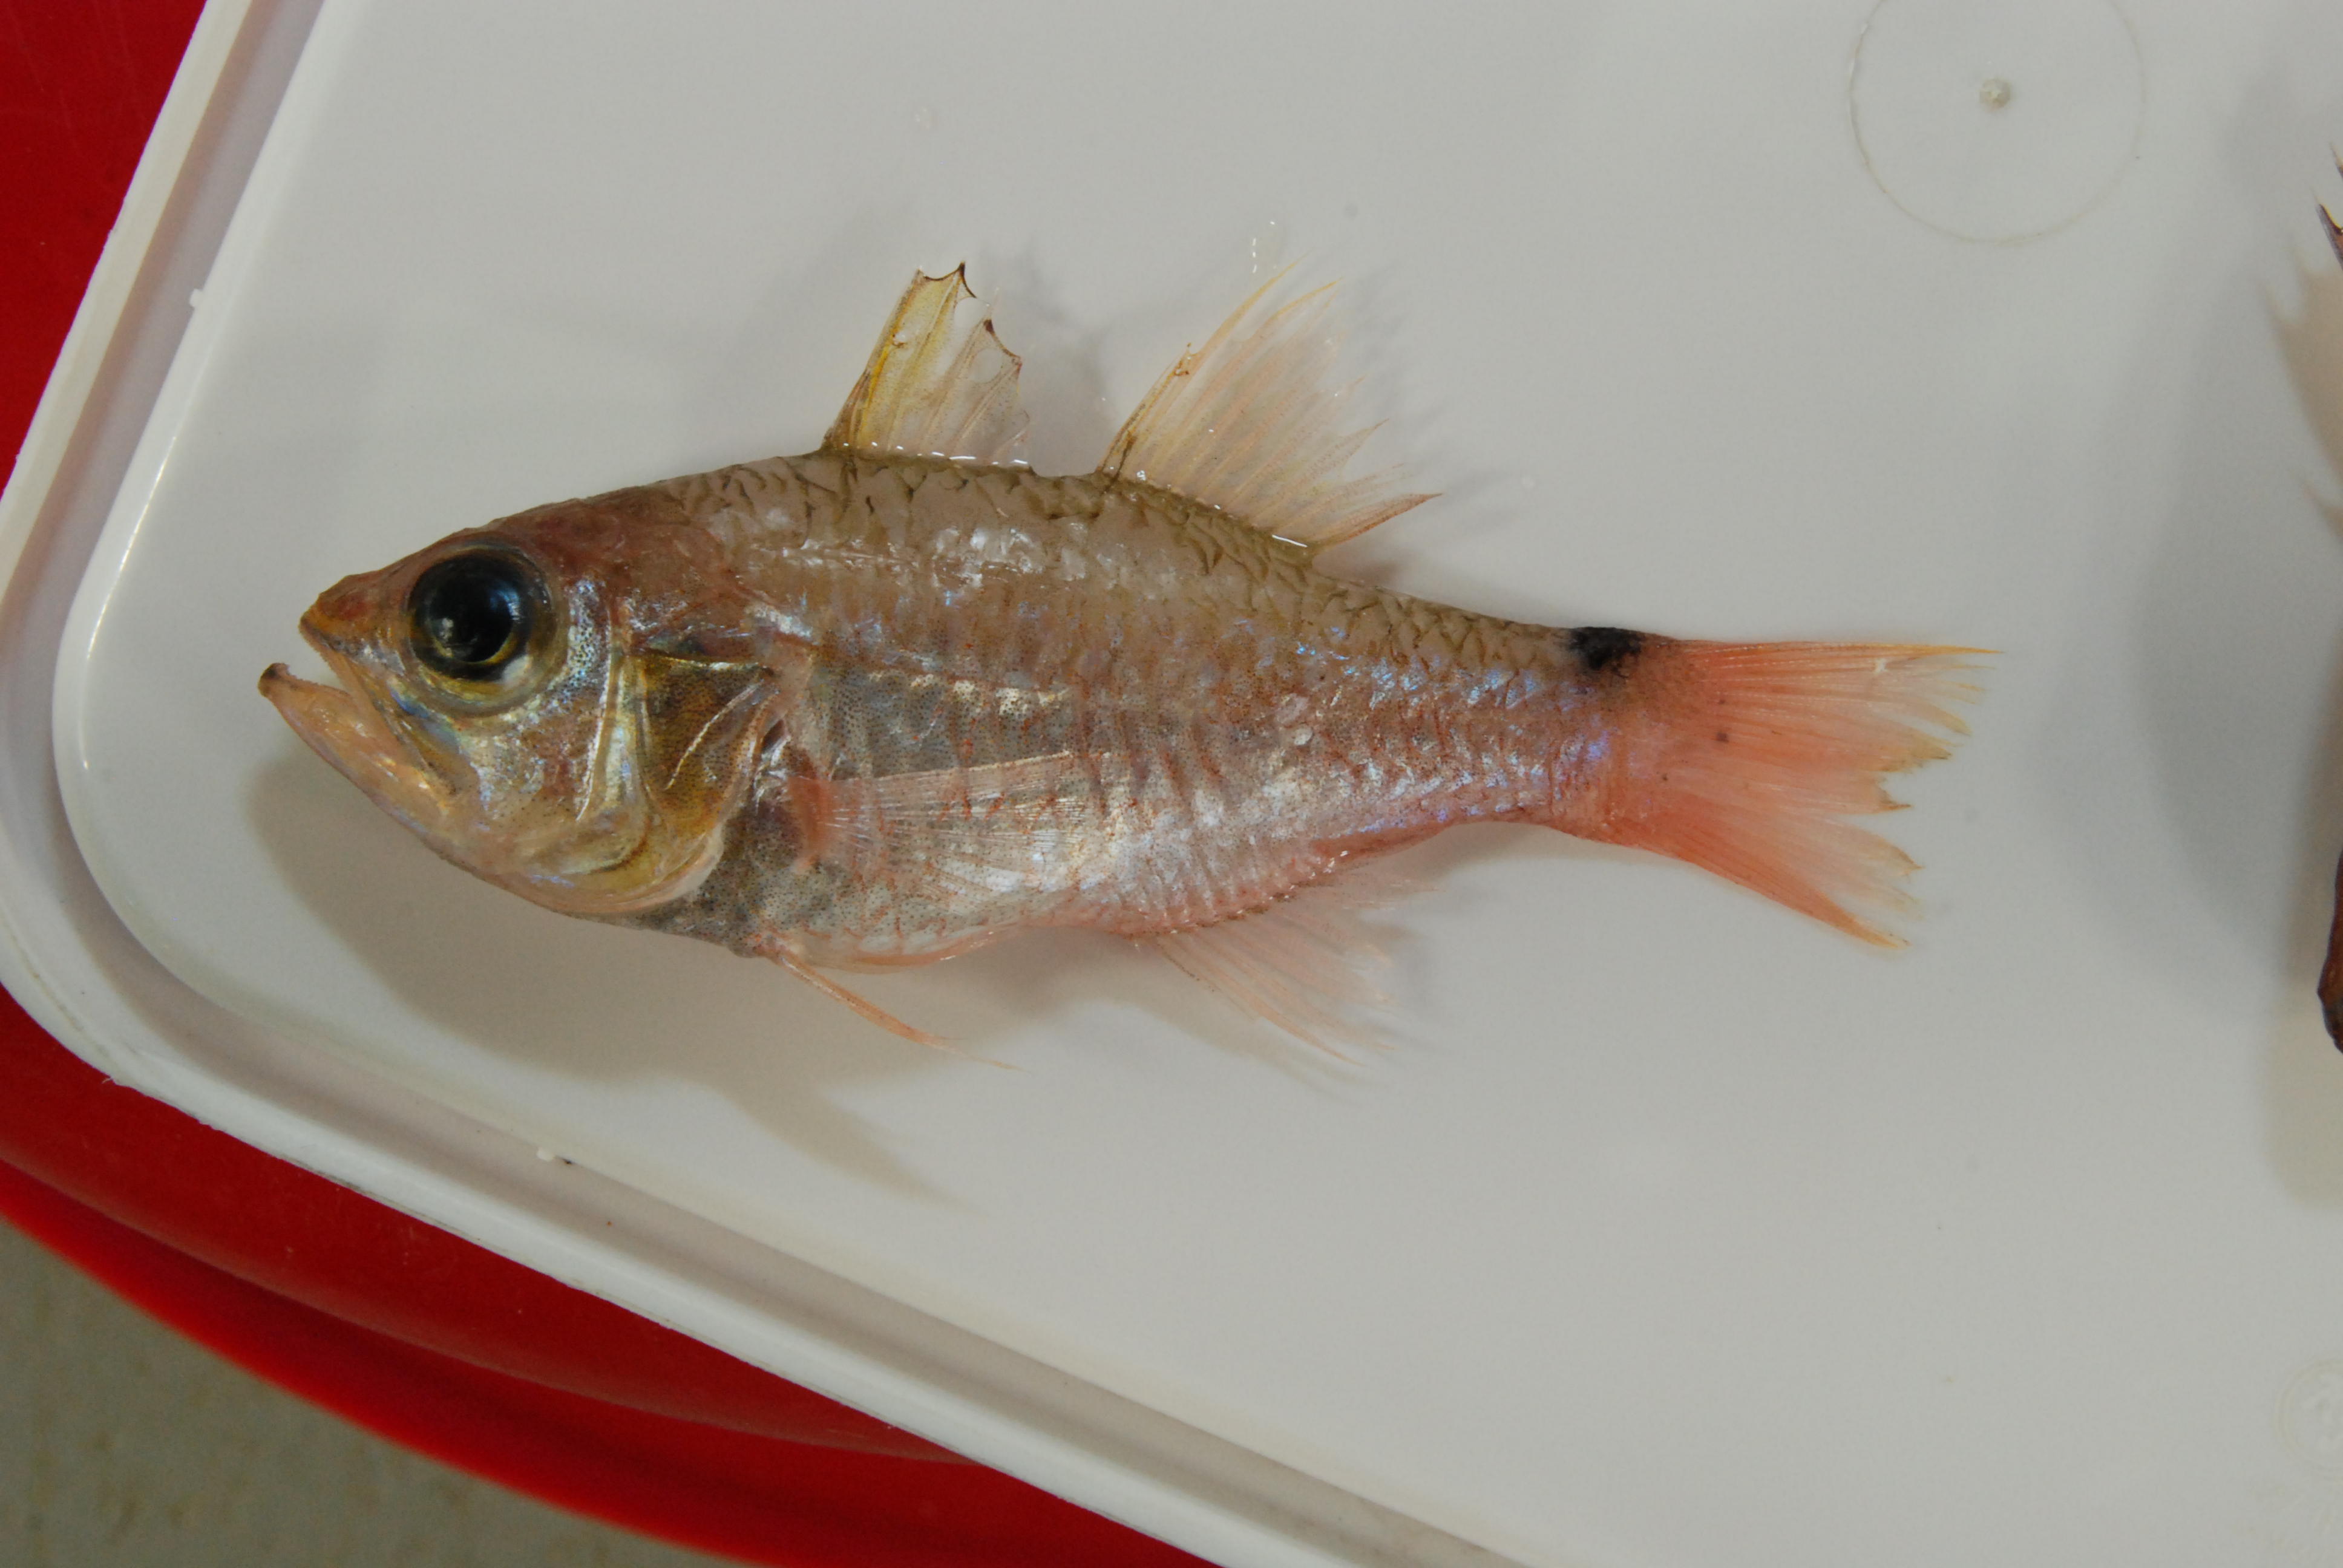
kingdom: Animalia
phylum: Chordata
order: Perciformes
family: Apogonidae
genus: Ostorhinchus
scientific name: Ostorhinchus spilurus
